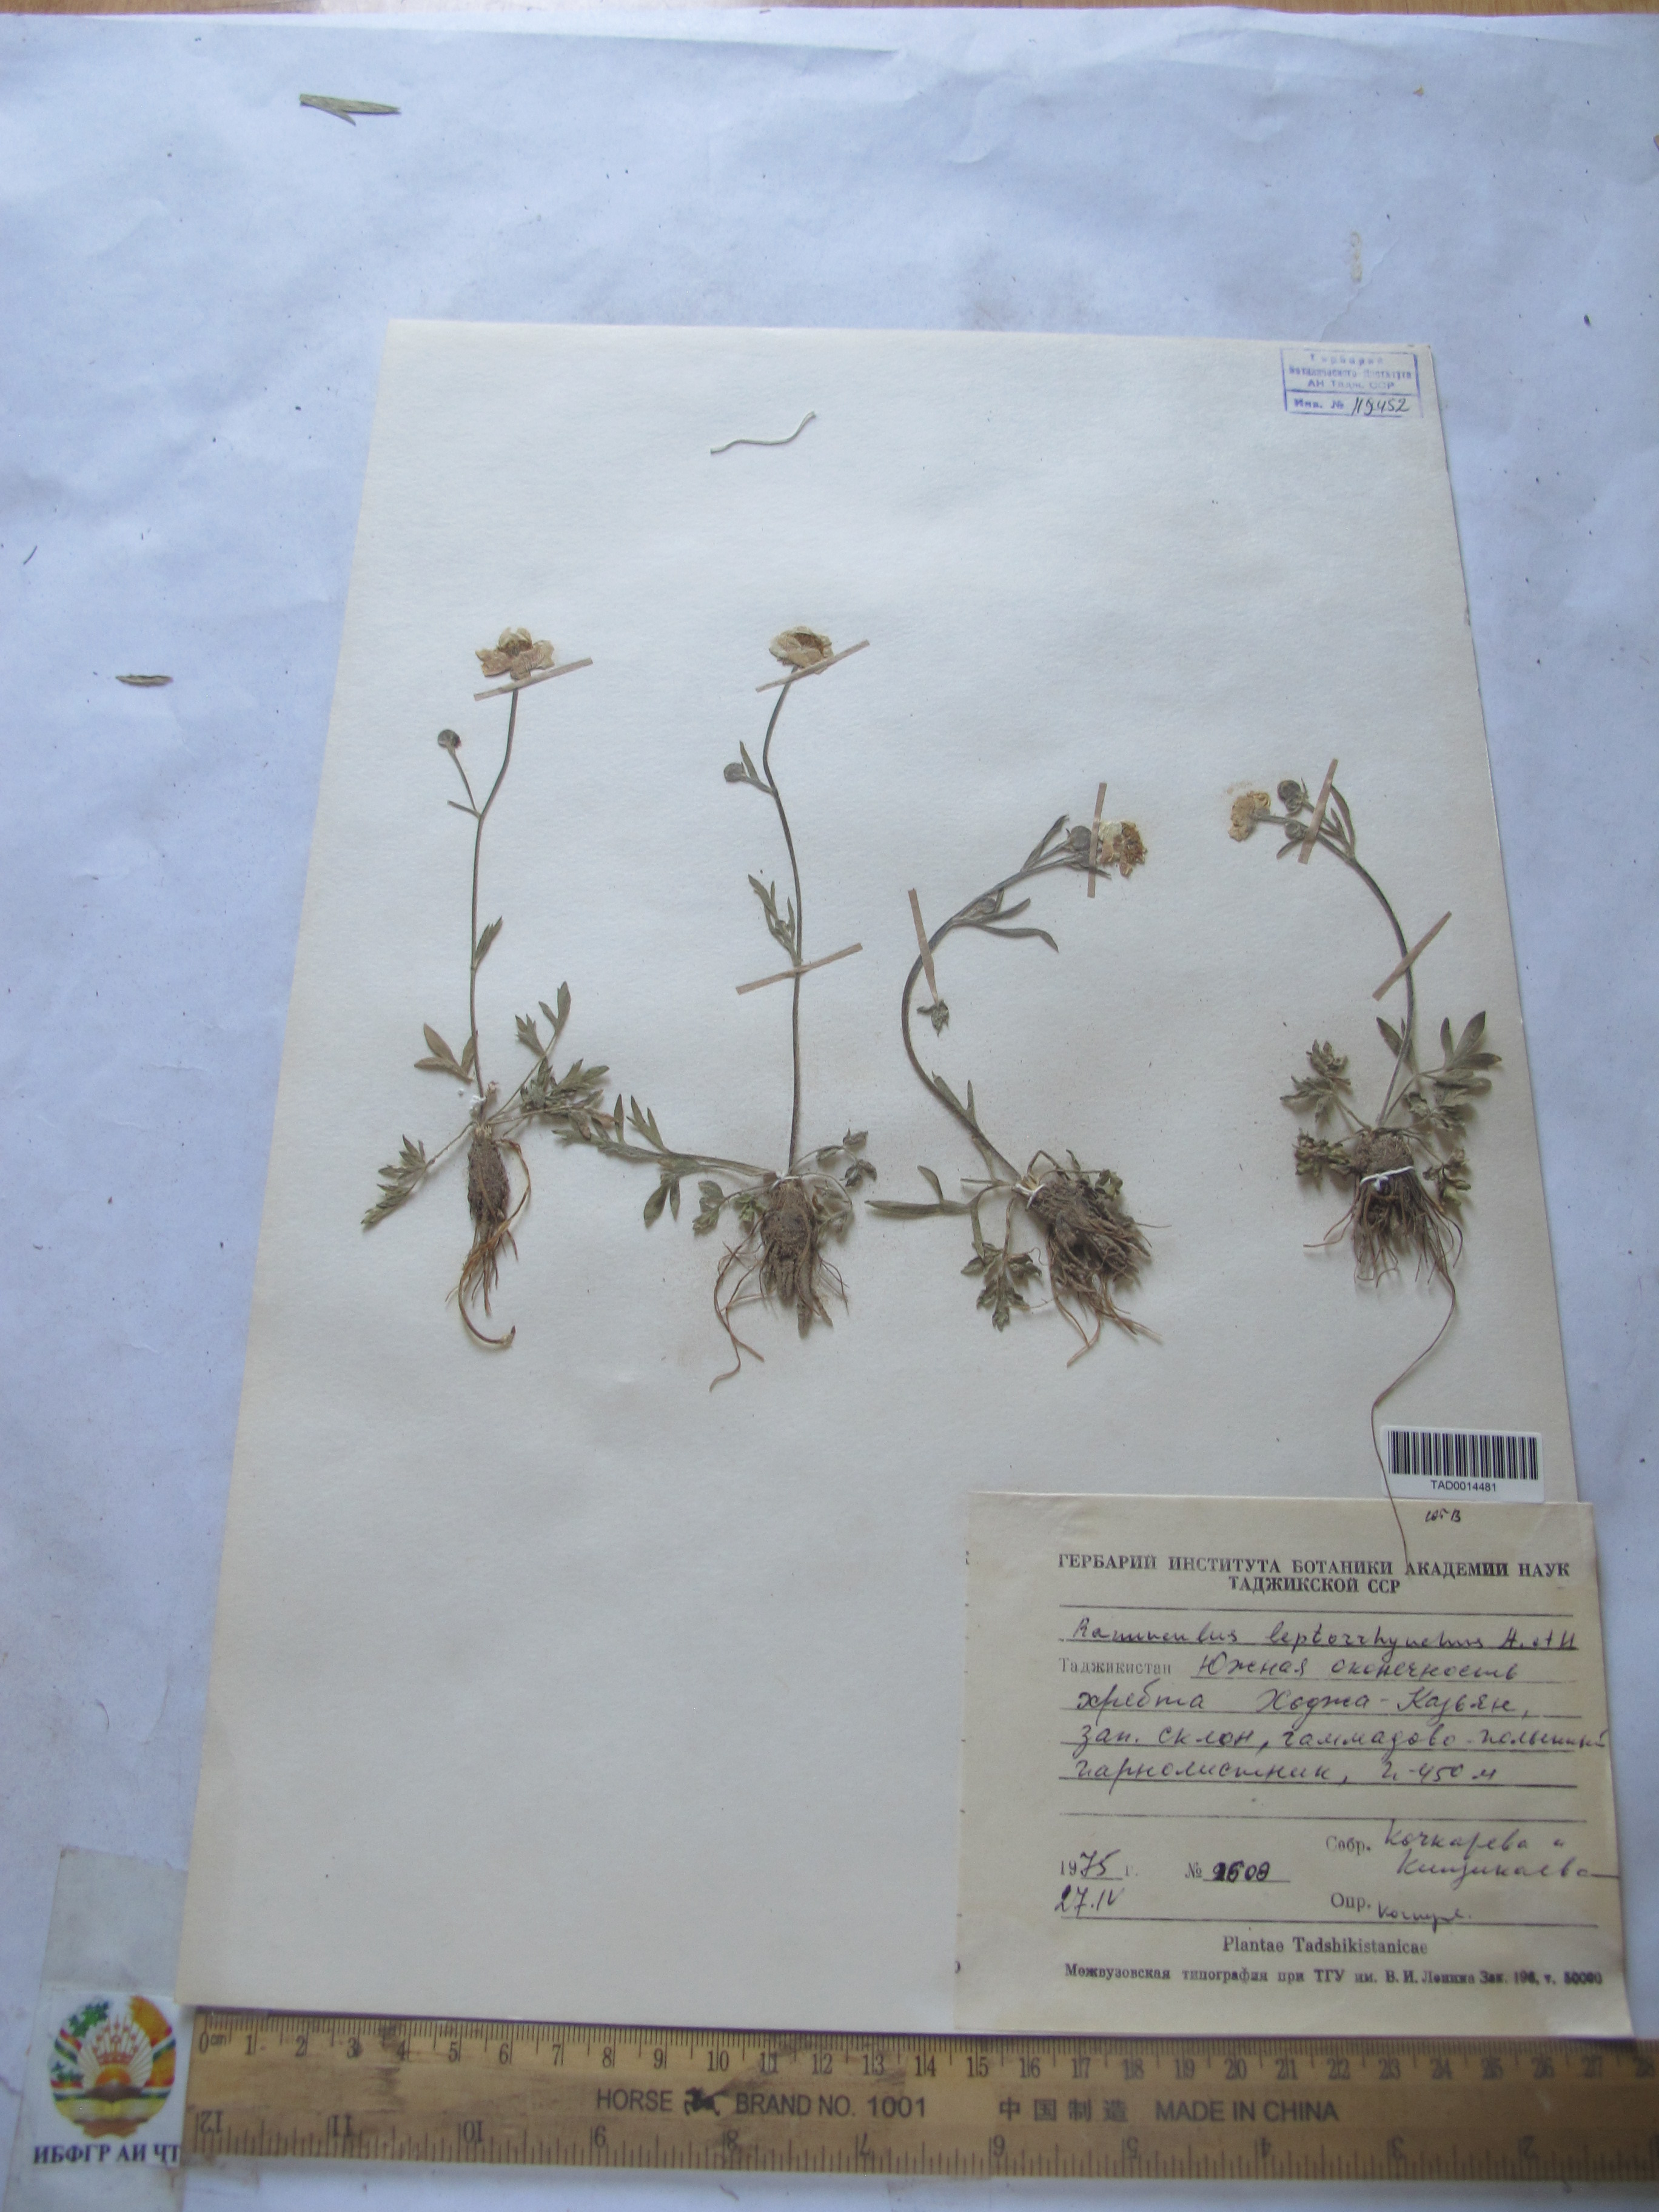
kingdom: Plantae
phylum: Tracheophyta
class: Magnoliopsida
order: Ranunculales
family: Ranunculaceae
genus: Ranunculus
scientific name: Ranunculus leptorrhynchus
